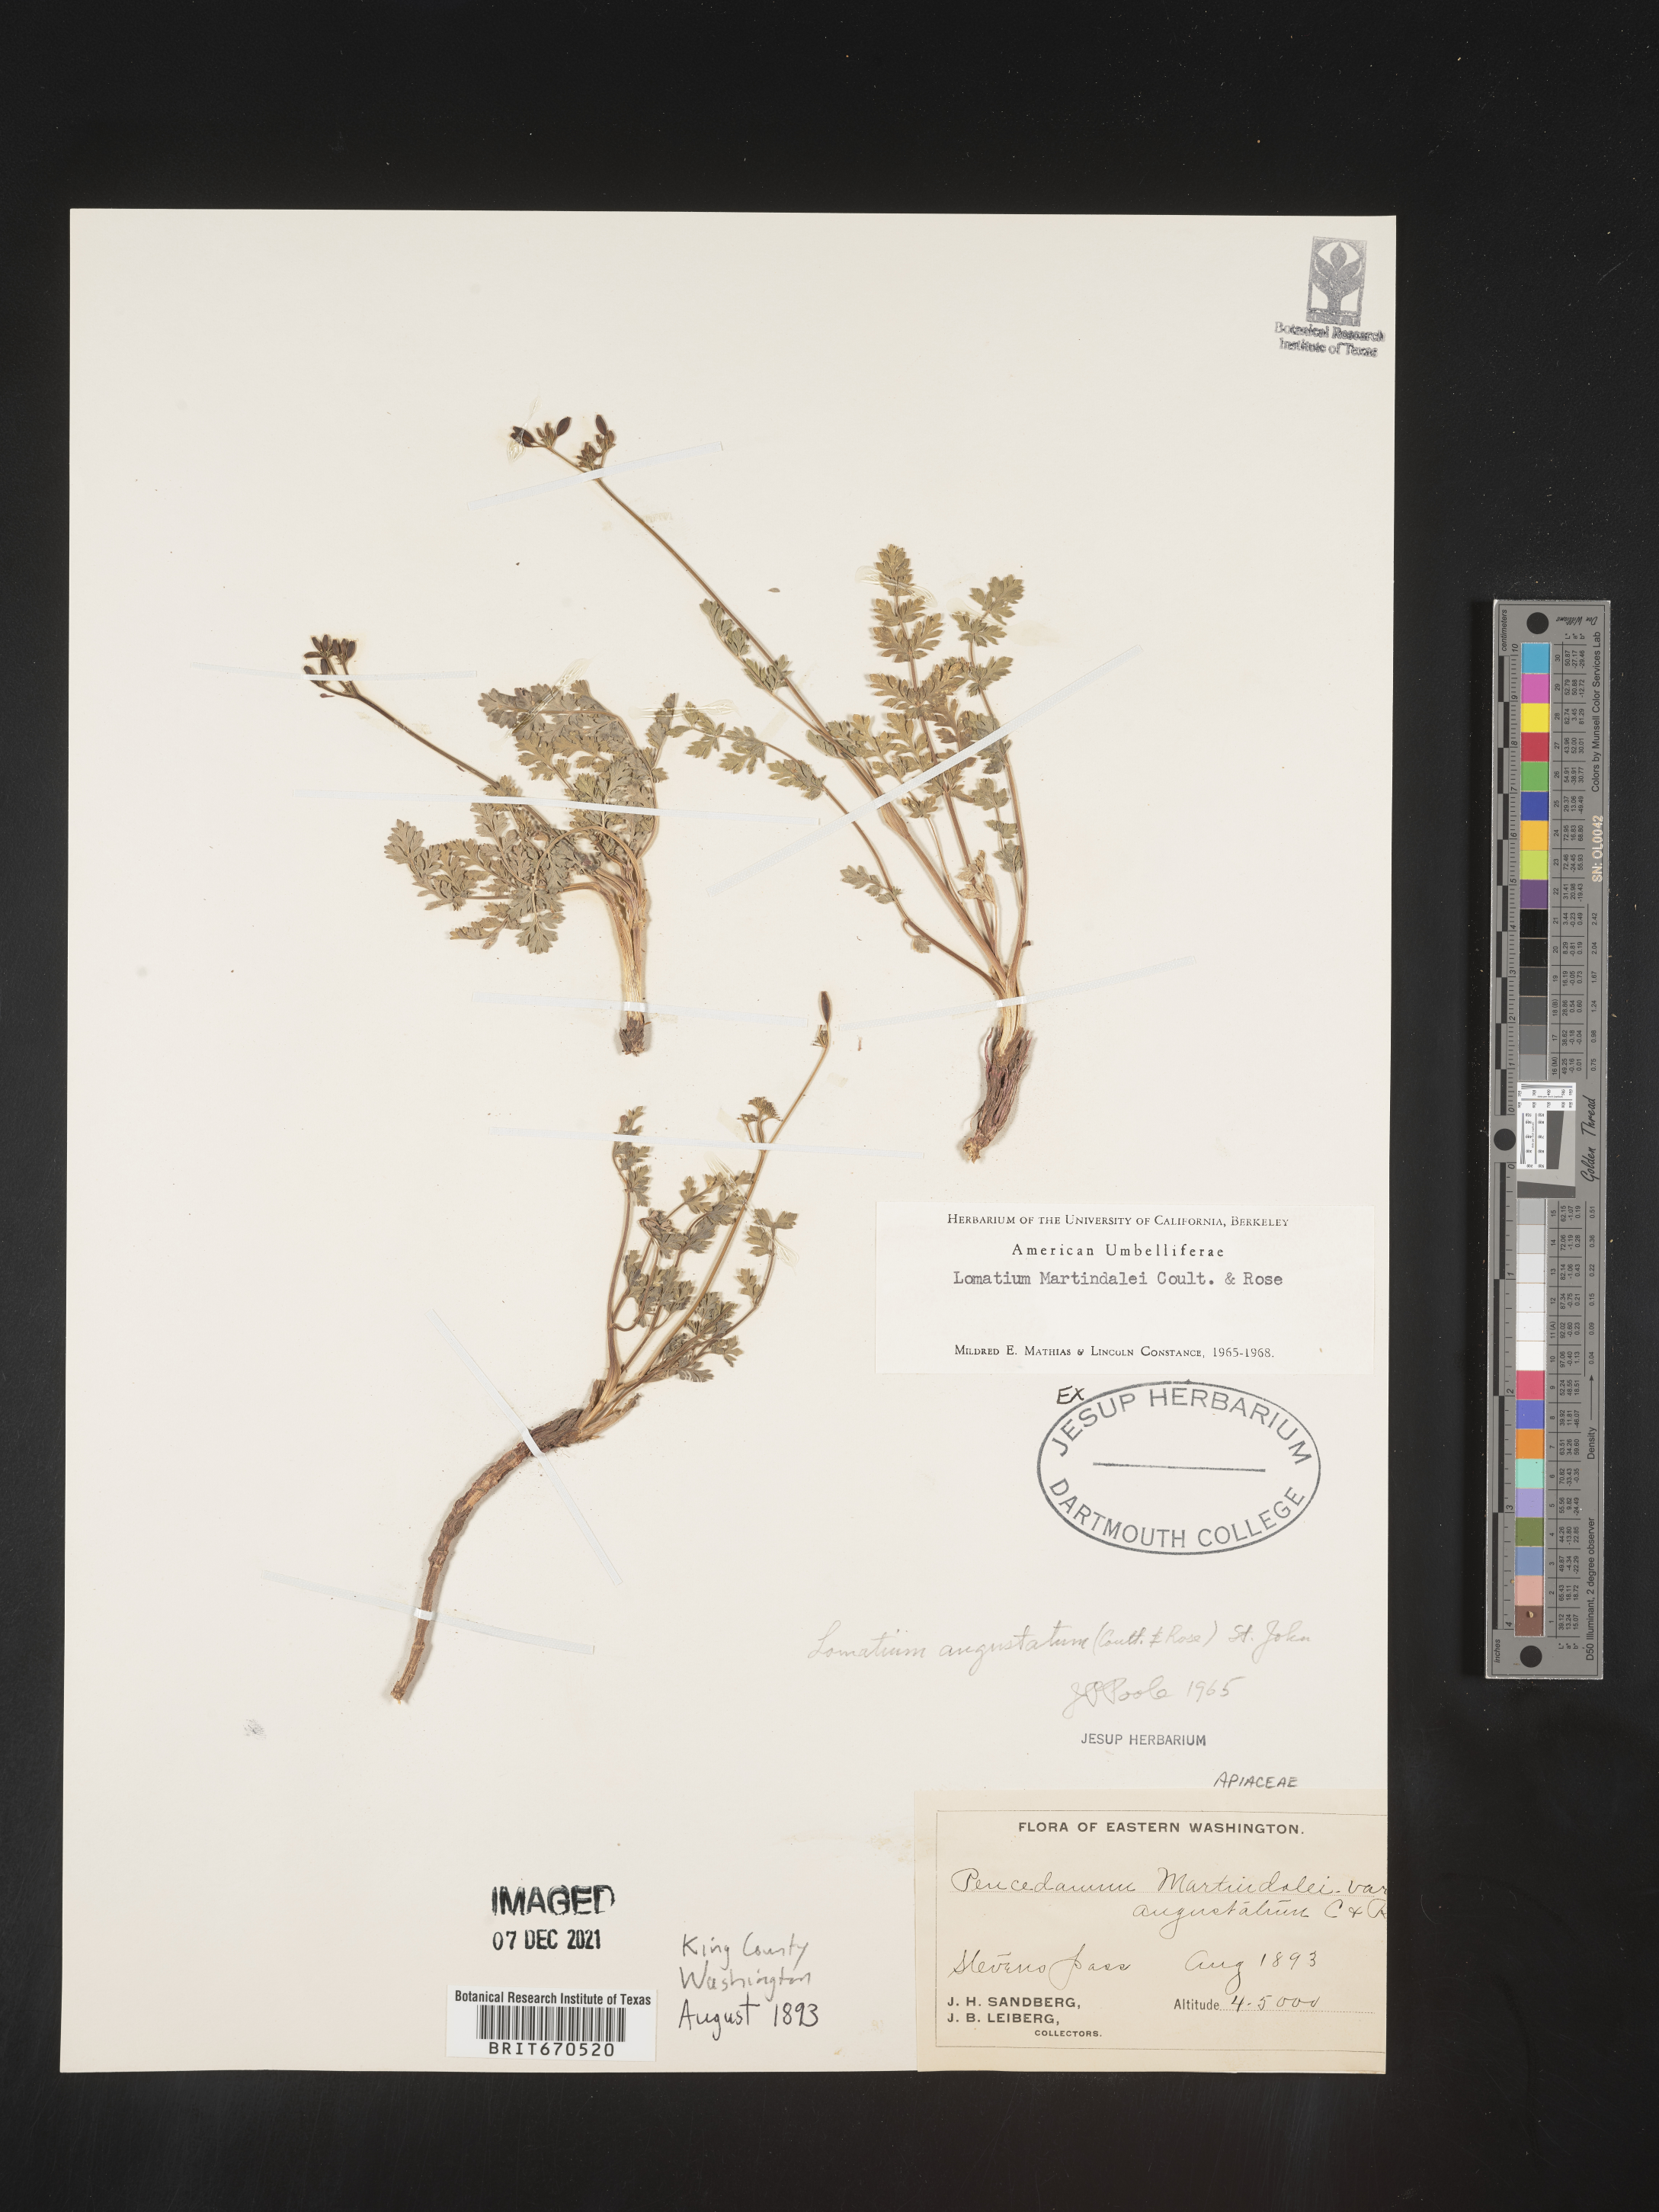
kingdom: Plantae
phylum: Tracheophyta
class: Magnoliopsida
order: Apiales
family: Apiaceae
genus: Lomatium
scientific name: Lomatium martindalei
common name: Cascade desert-parsley
